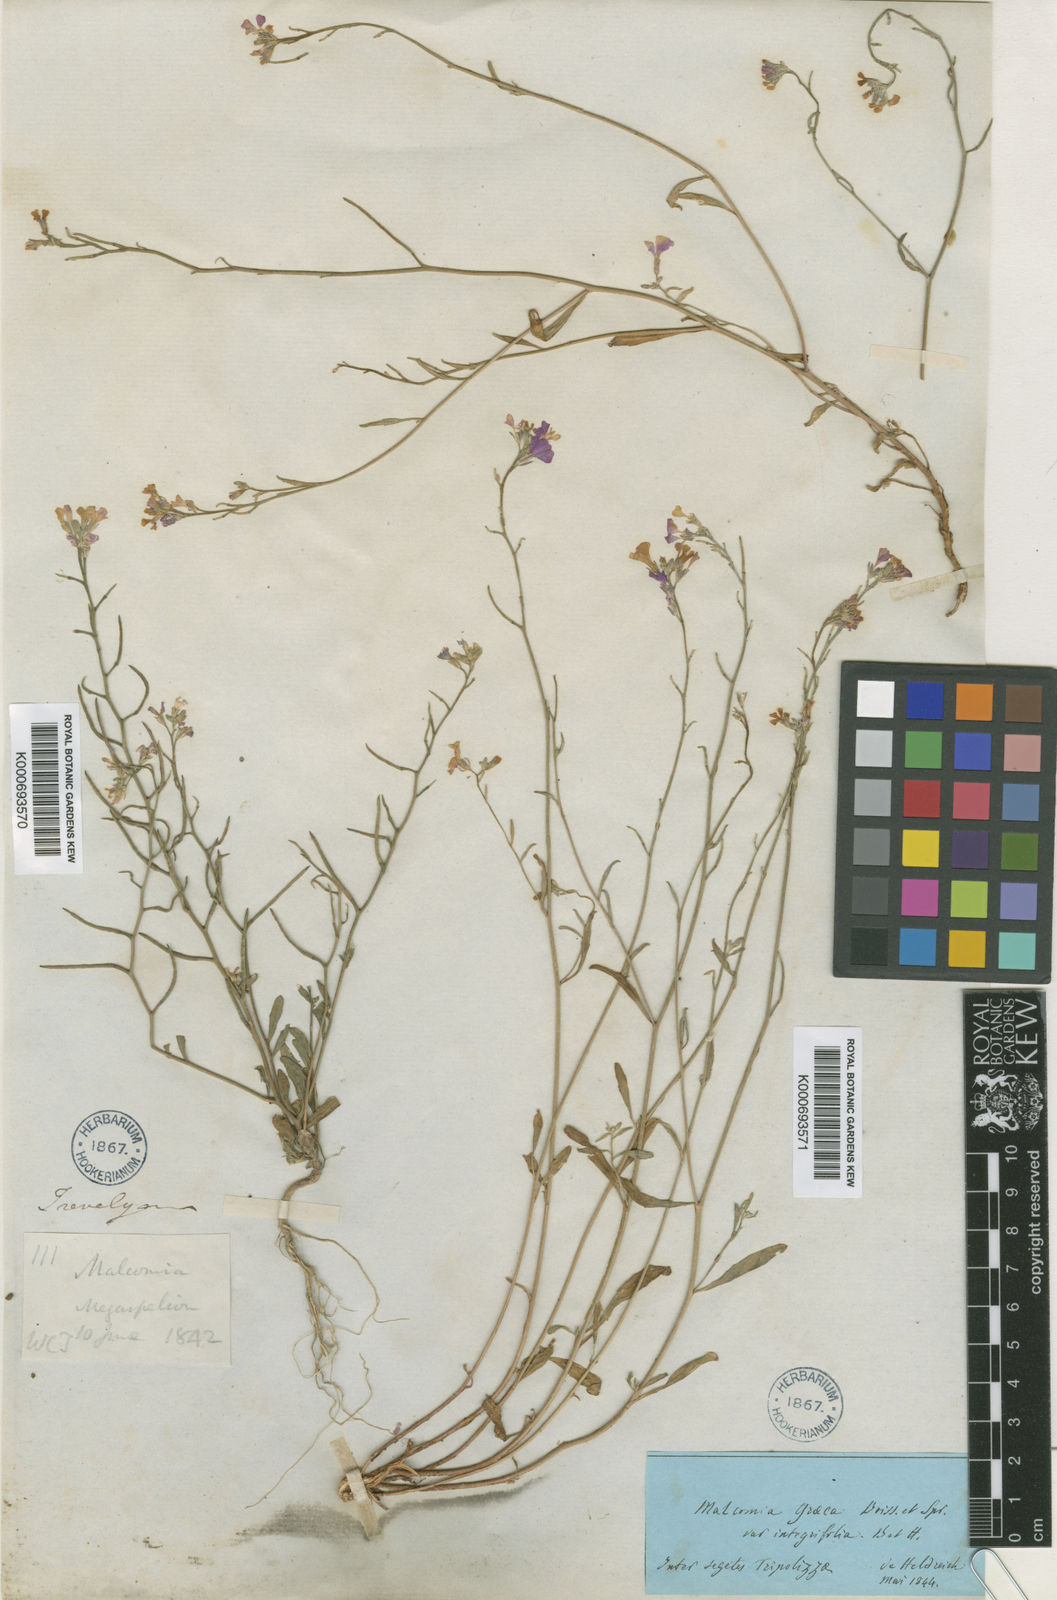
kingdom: Plantae
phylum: Tracheophyta
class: Magnoliopsida
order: Brassicales
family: Brassicaceae
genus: Malcolmia
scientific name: Malcolmia graeca
